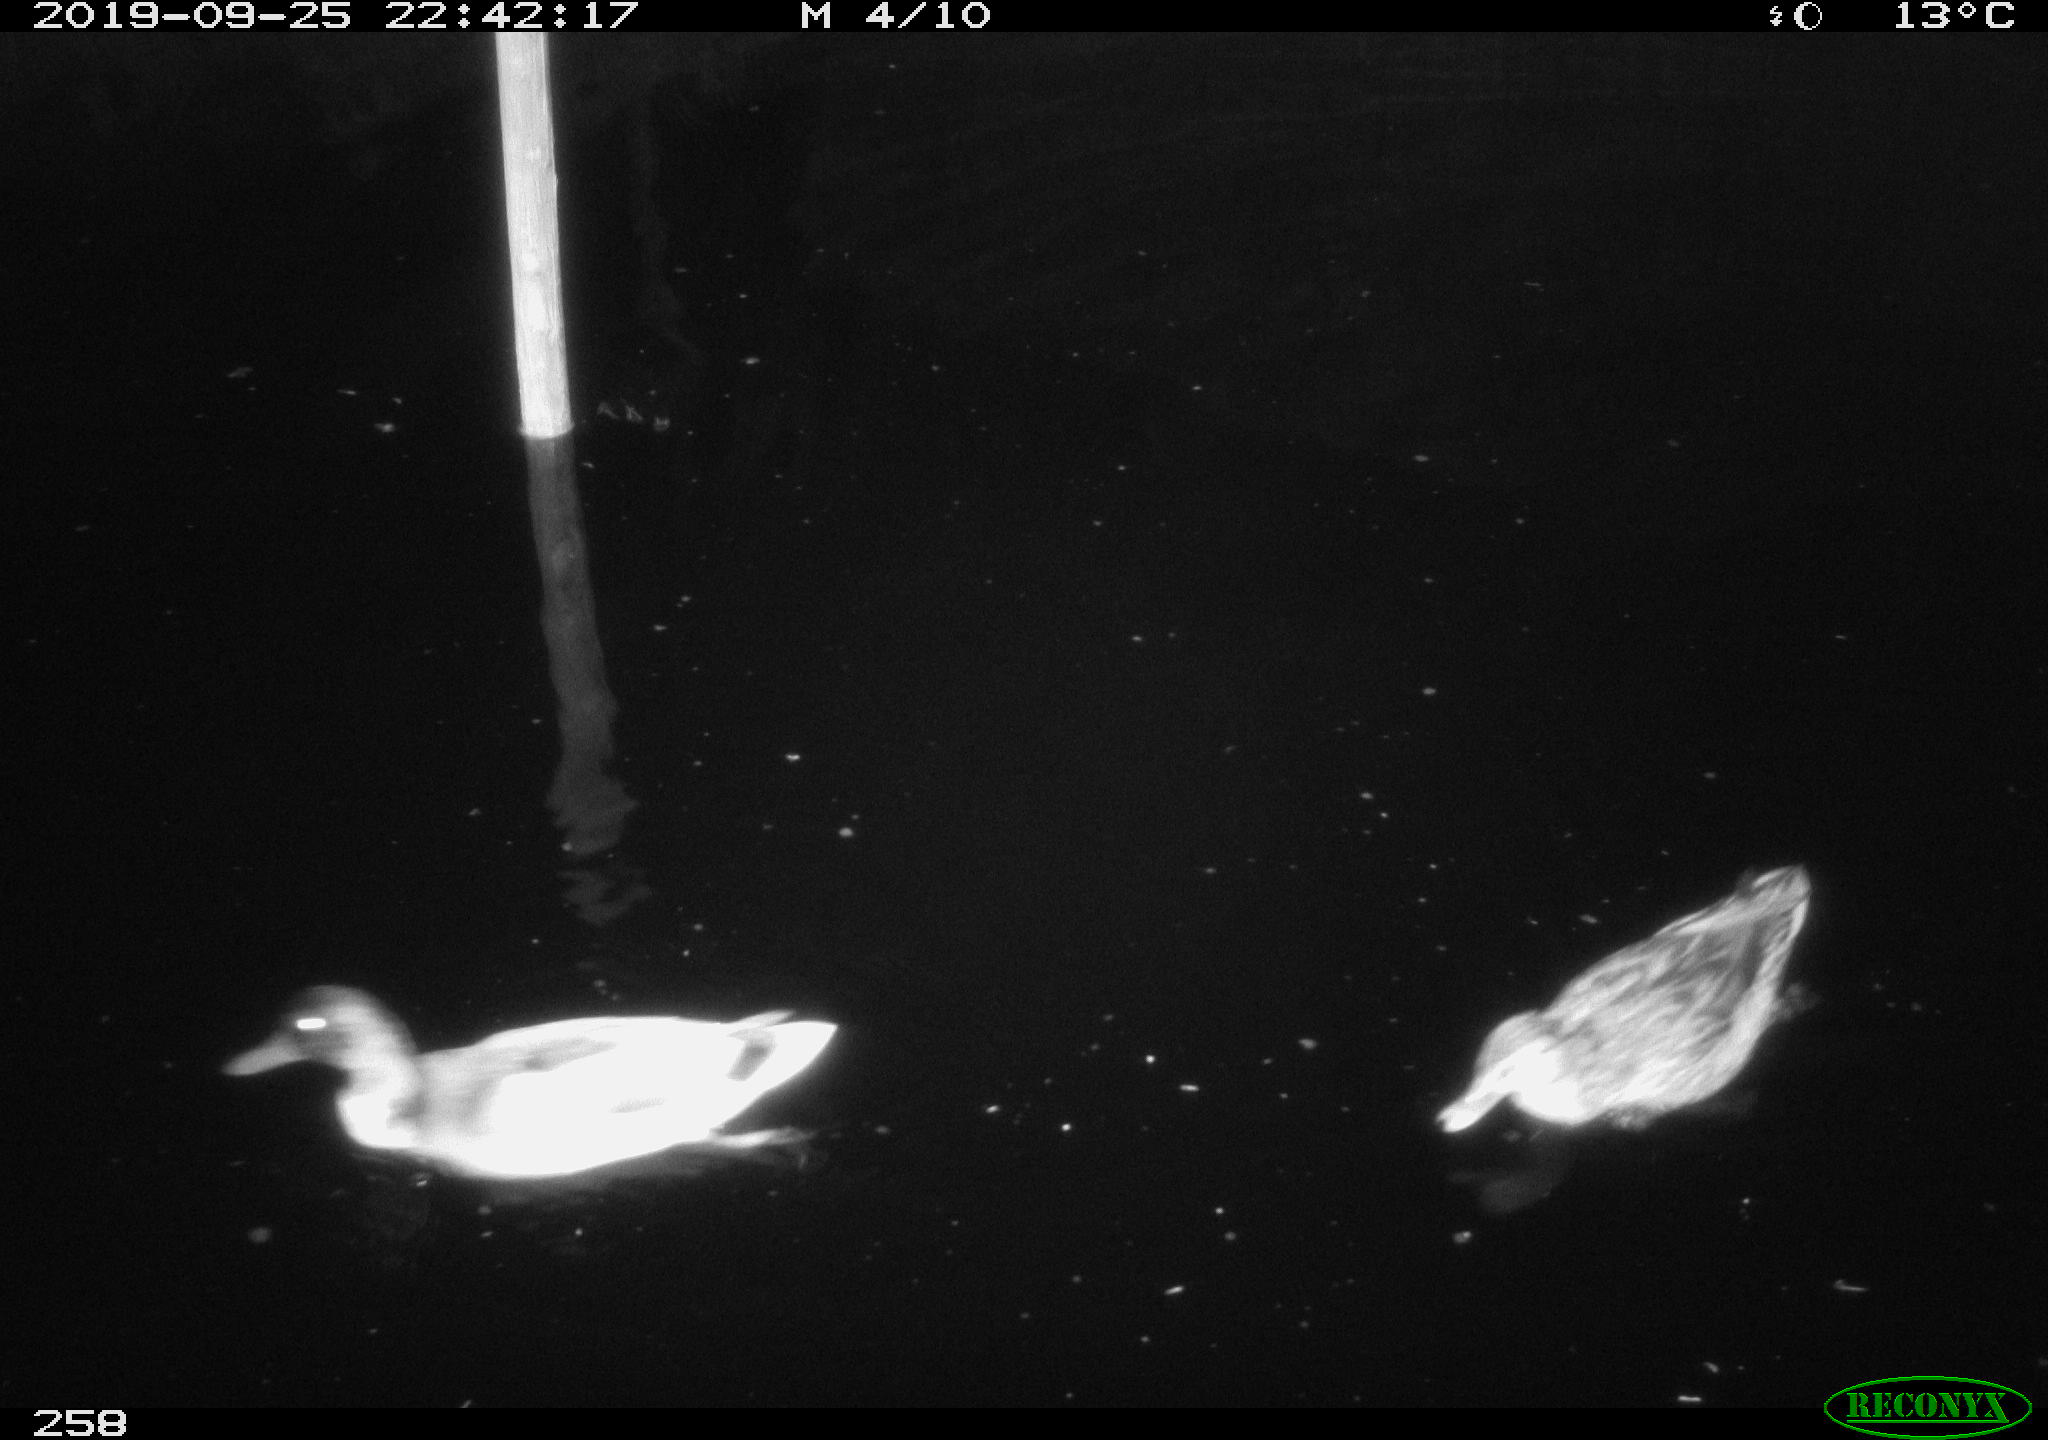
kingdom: Animalia
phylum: Chordata
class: Aves
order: Anseriformes
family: Anatidae
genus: Anas
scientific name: Anas platyrhynchos
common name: Mallard
